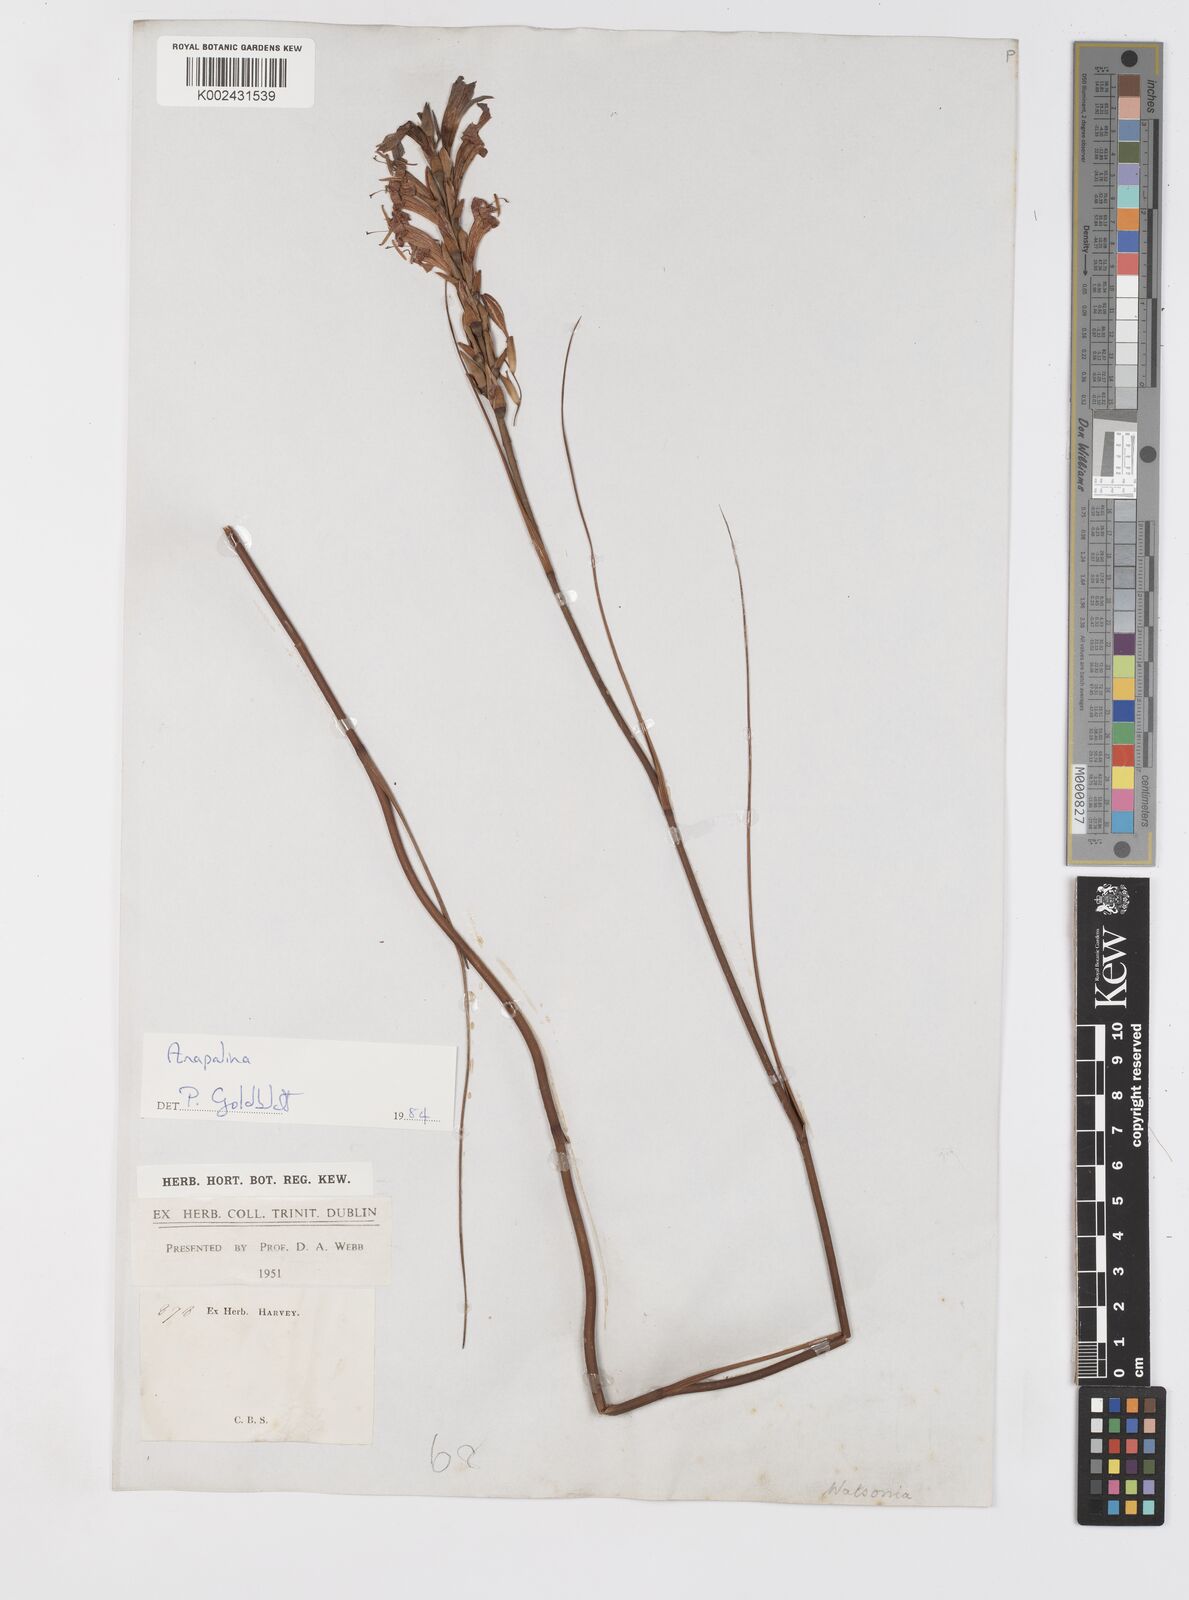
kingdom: Plantae
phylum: Tracheophyta
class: Liliopsida
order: Asparagales
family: Iridaceae
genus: Tritoniopsis
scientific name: Tritoniopsis
